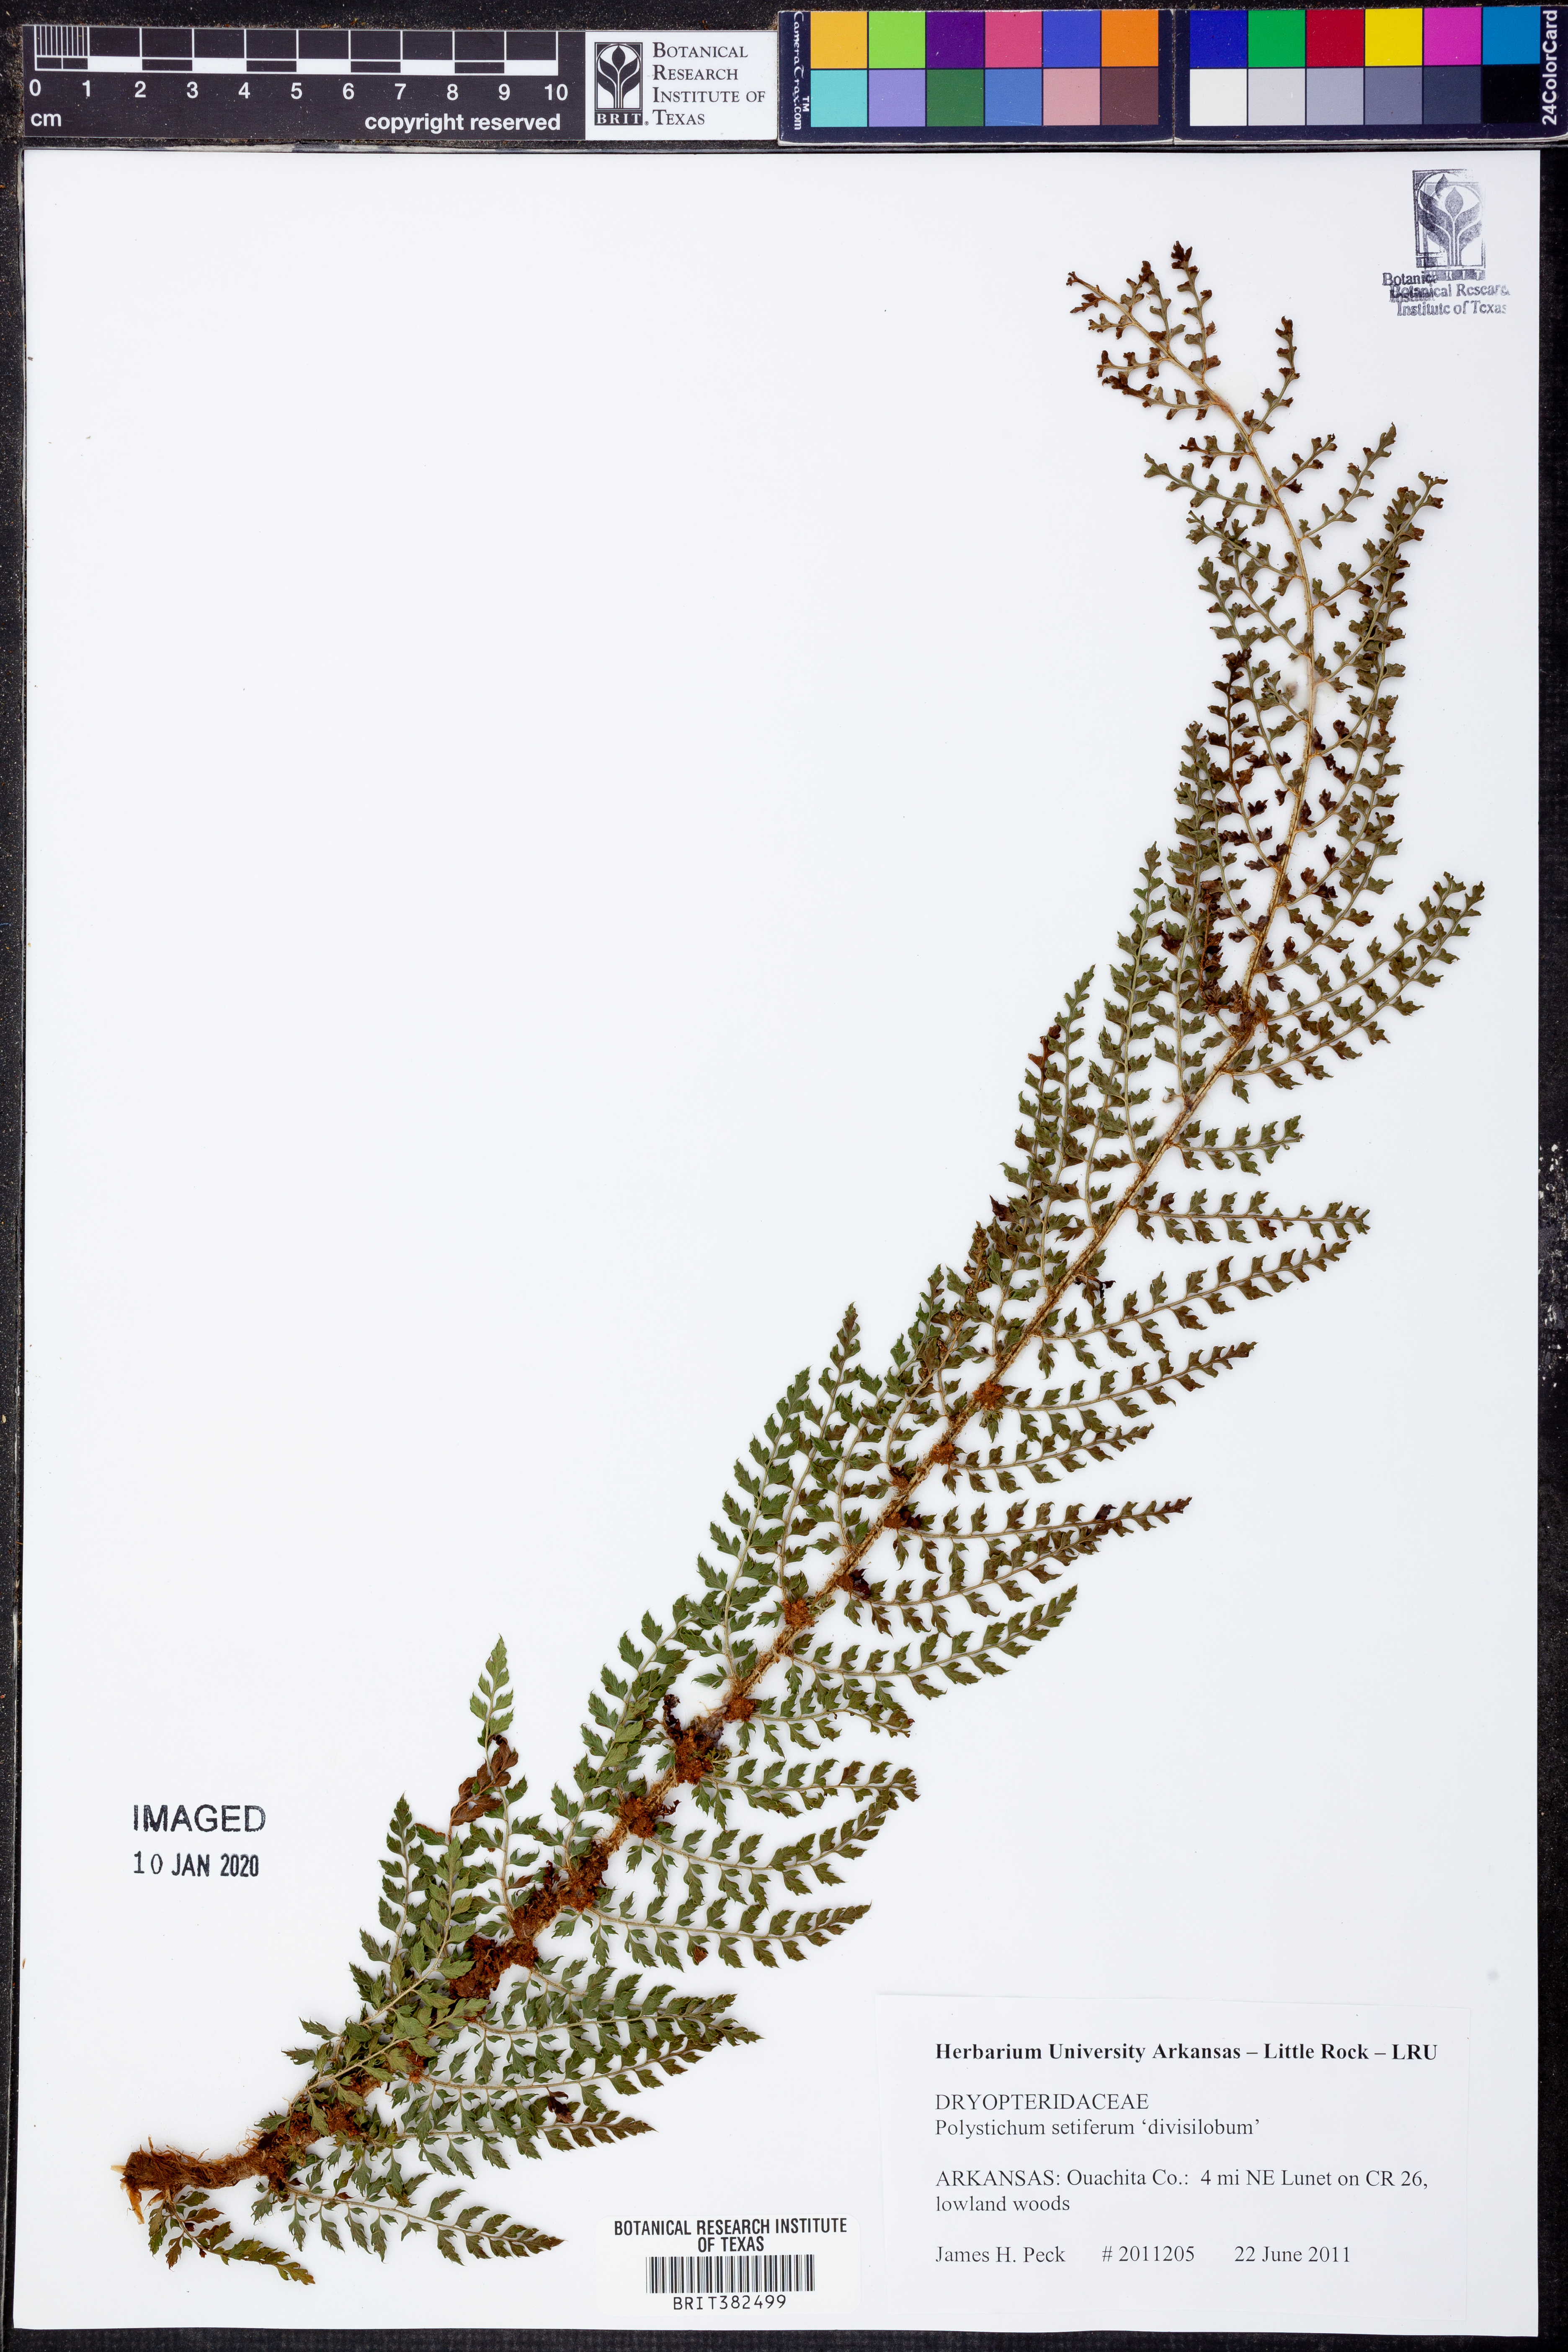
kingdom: Plantae
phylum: Tracheophyta
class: Polypodiopsida
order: Polypodiales
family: Dryopteridaceae
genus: Polystichum
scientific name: Polystichum setiferum
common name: Soft shield-fern
